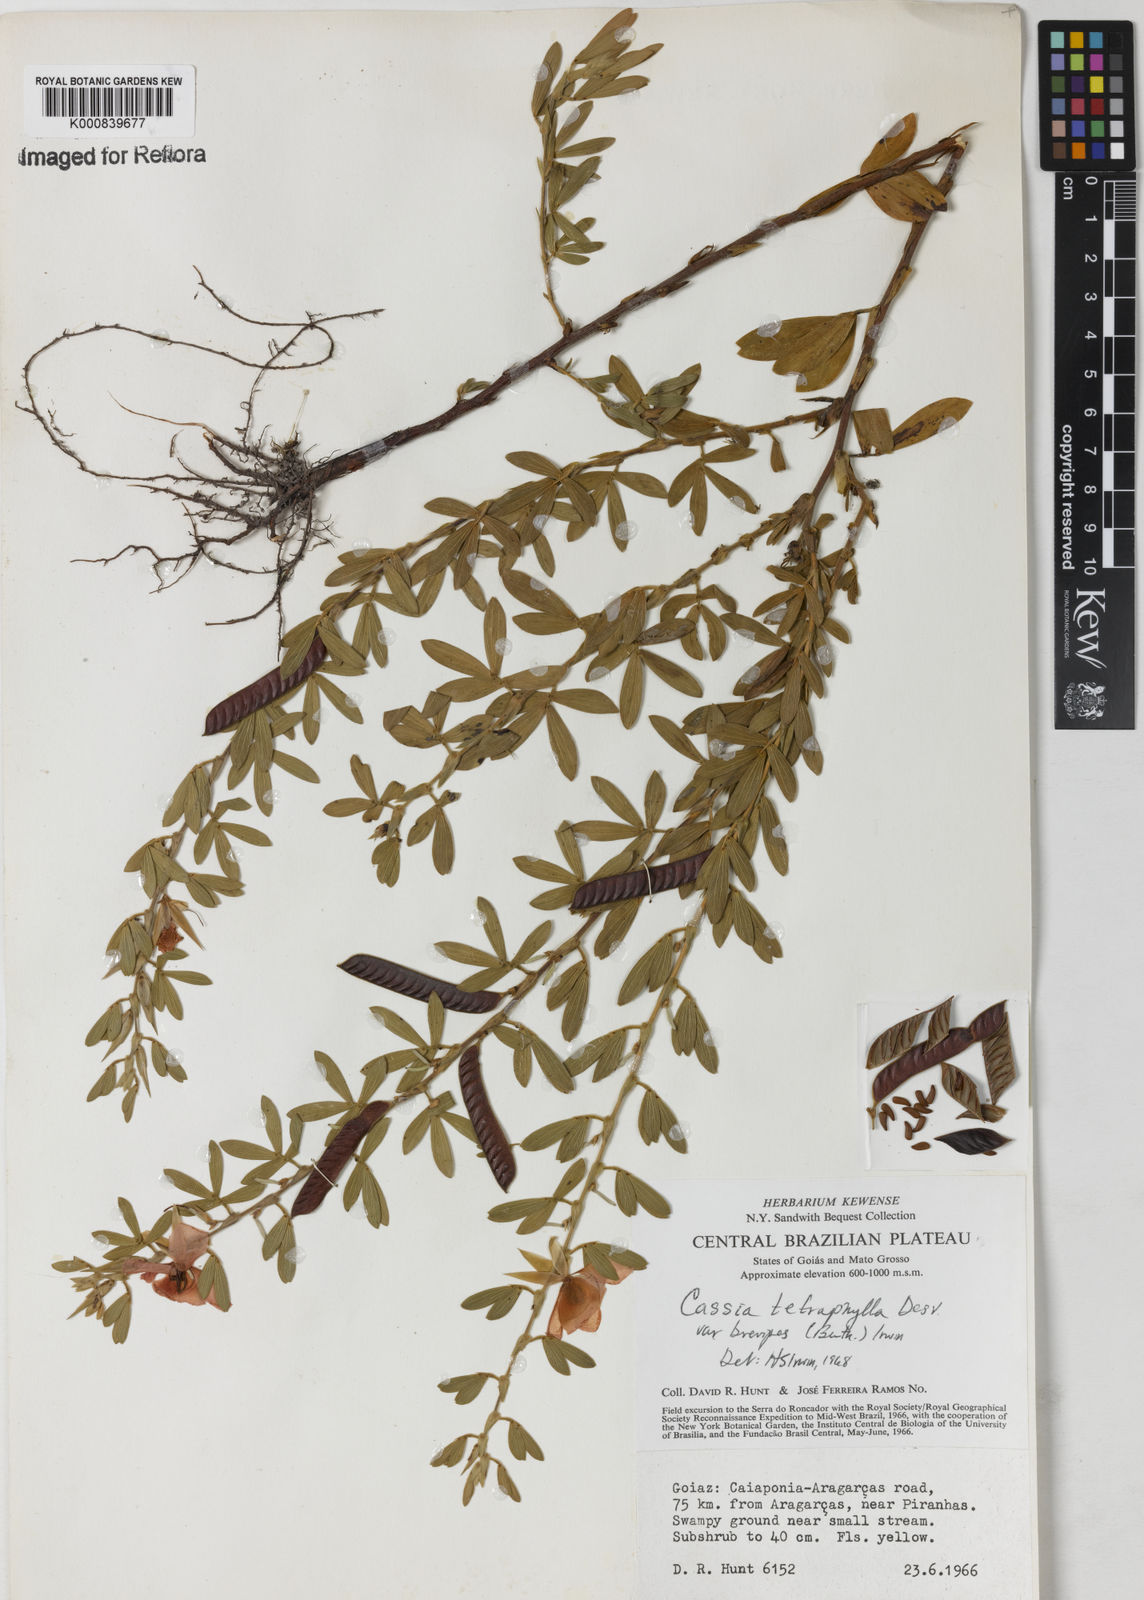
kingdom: Plantae
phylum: Tracheophyta
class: Magnoliopsida
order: Fabales
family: Fabaceae
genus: Chamaecrista
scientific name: Chamaecrista desvauxii
